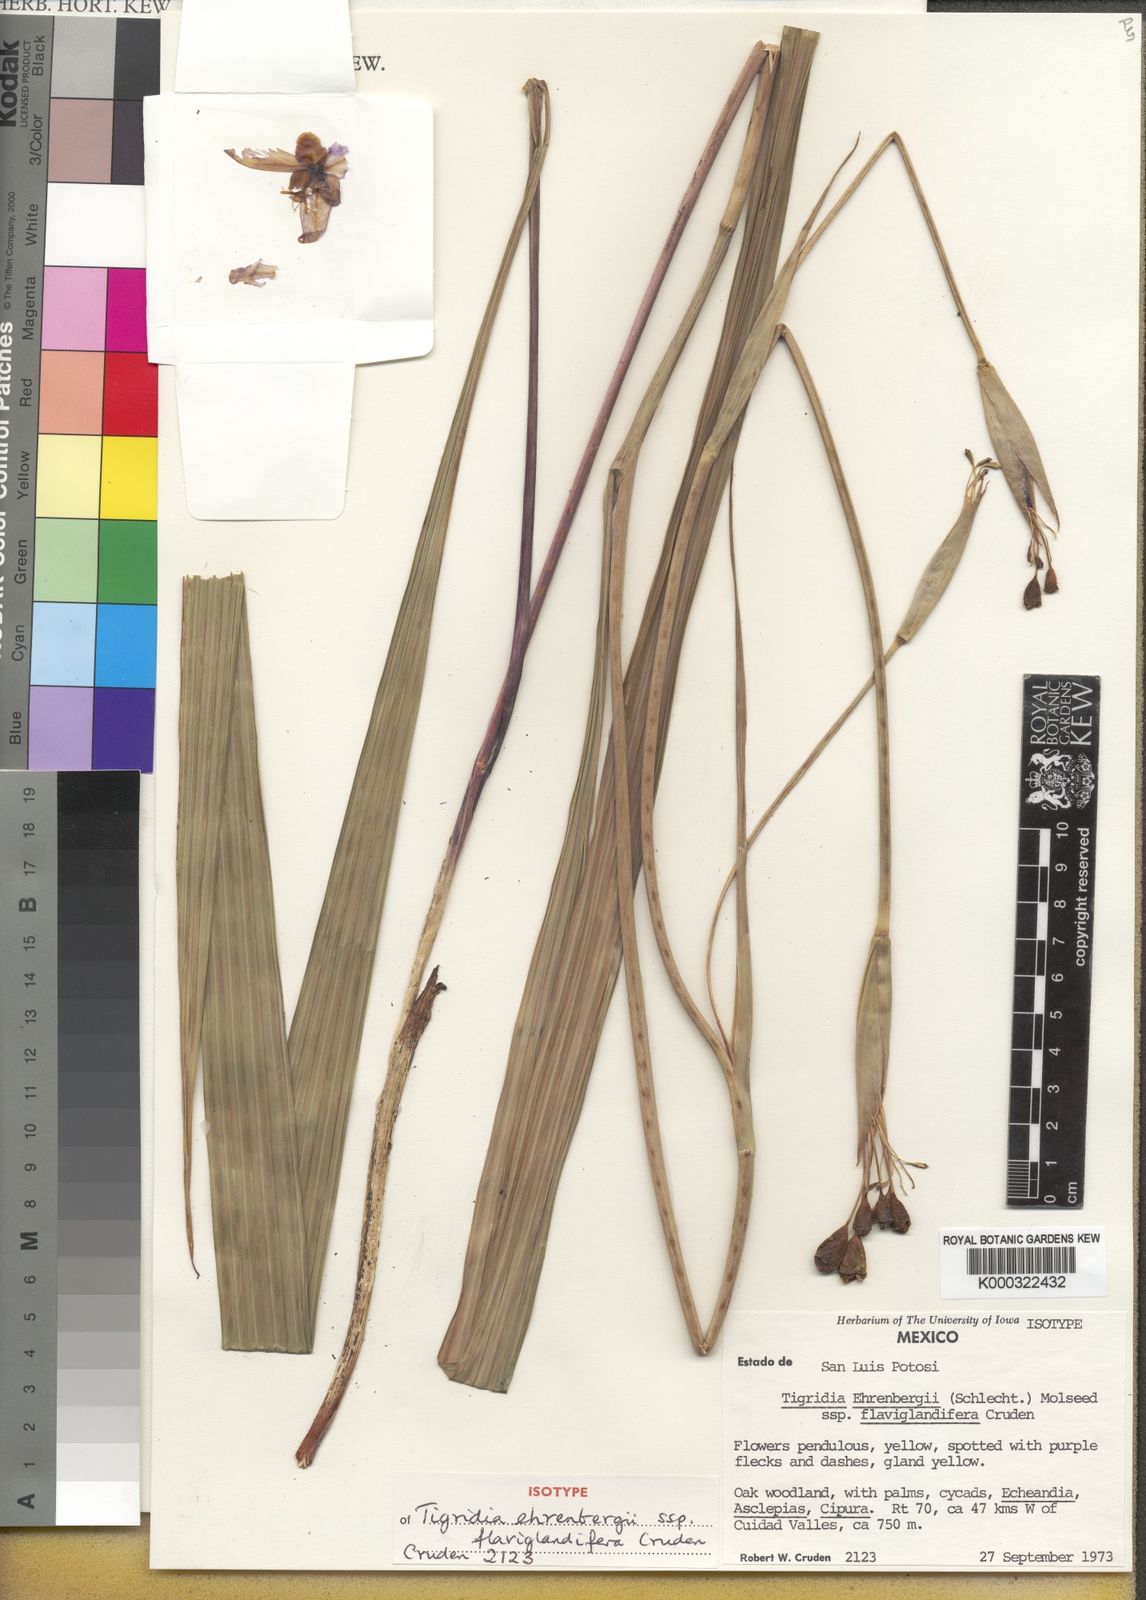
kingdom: Plantae
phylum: Tracheophyta
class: Liliopsida
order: Asparagales
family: Iridaceae
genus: Tigridia
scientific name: Tigridia ehrenbergii
